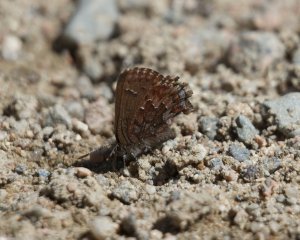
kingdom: Animalia
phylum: Arthropoda
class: Insecta
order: Lepidoptera
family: Lycaenidae
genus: Incisalia
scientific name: Incisalia lanoraieensis
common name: Bog Elfin
